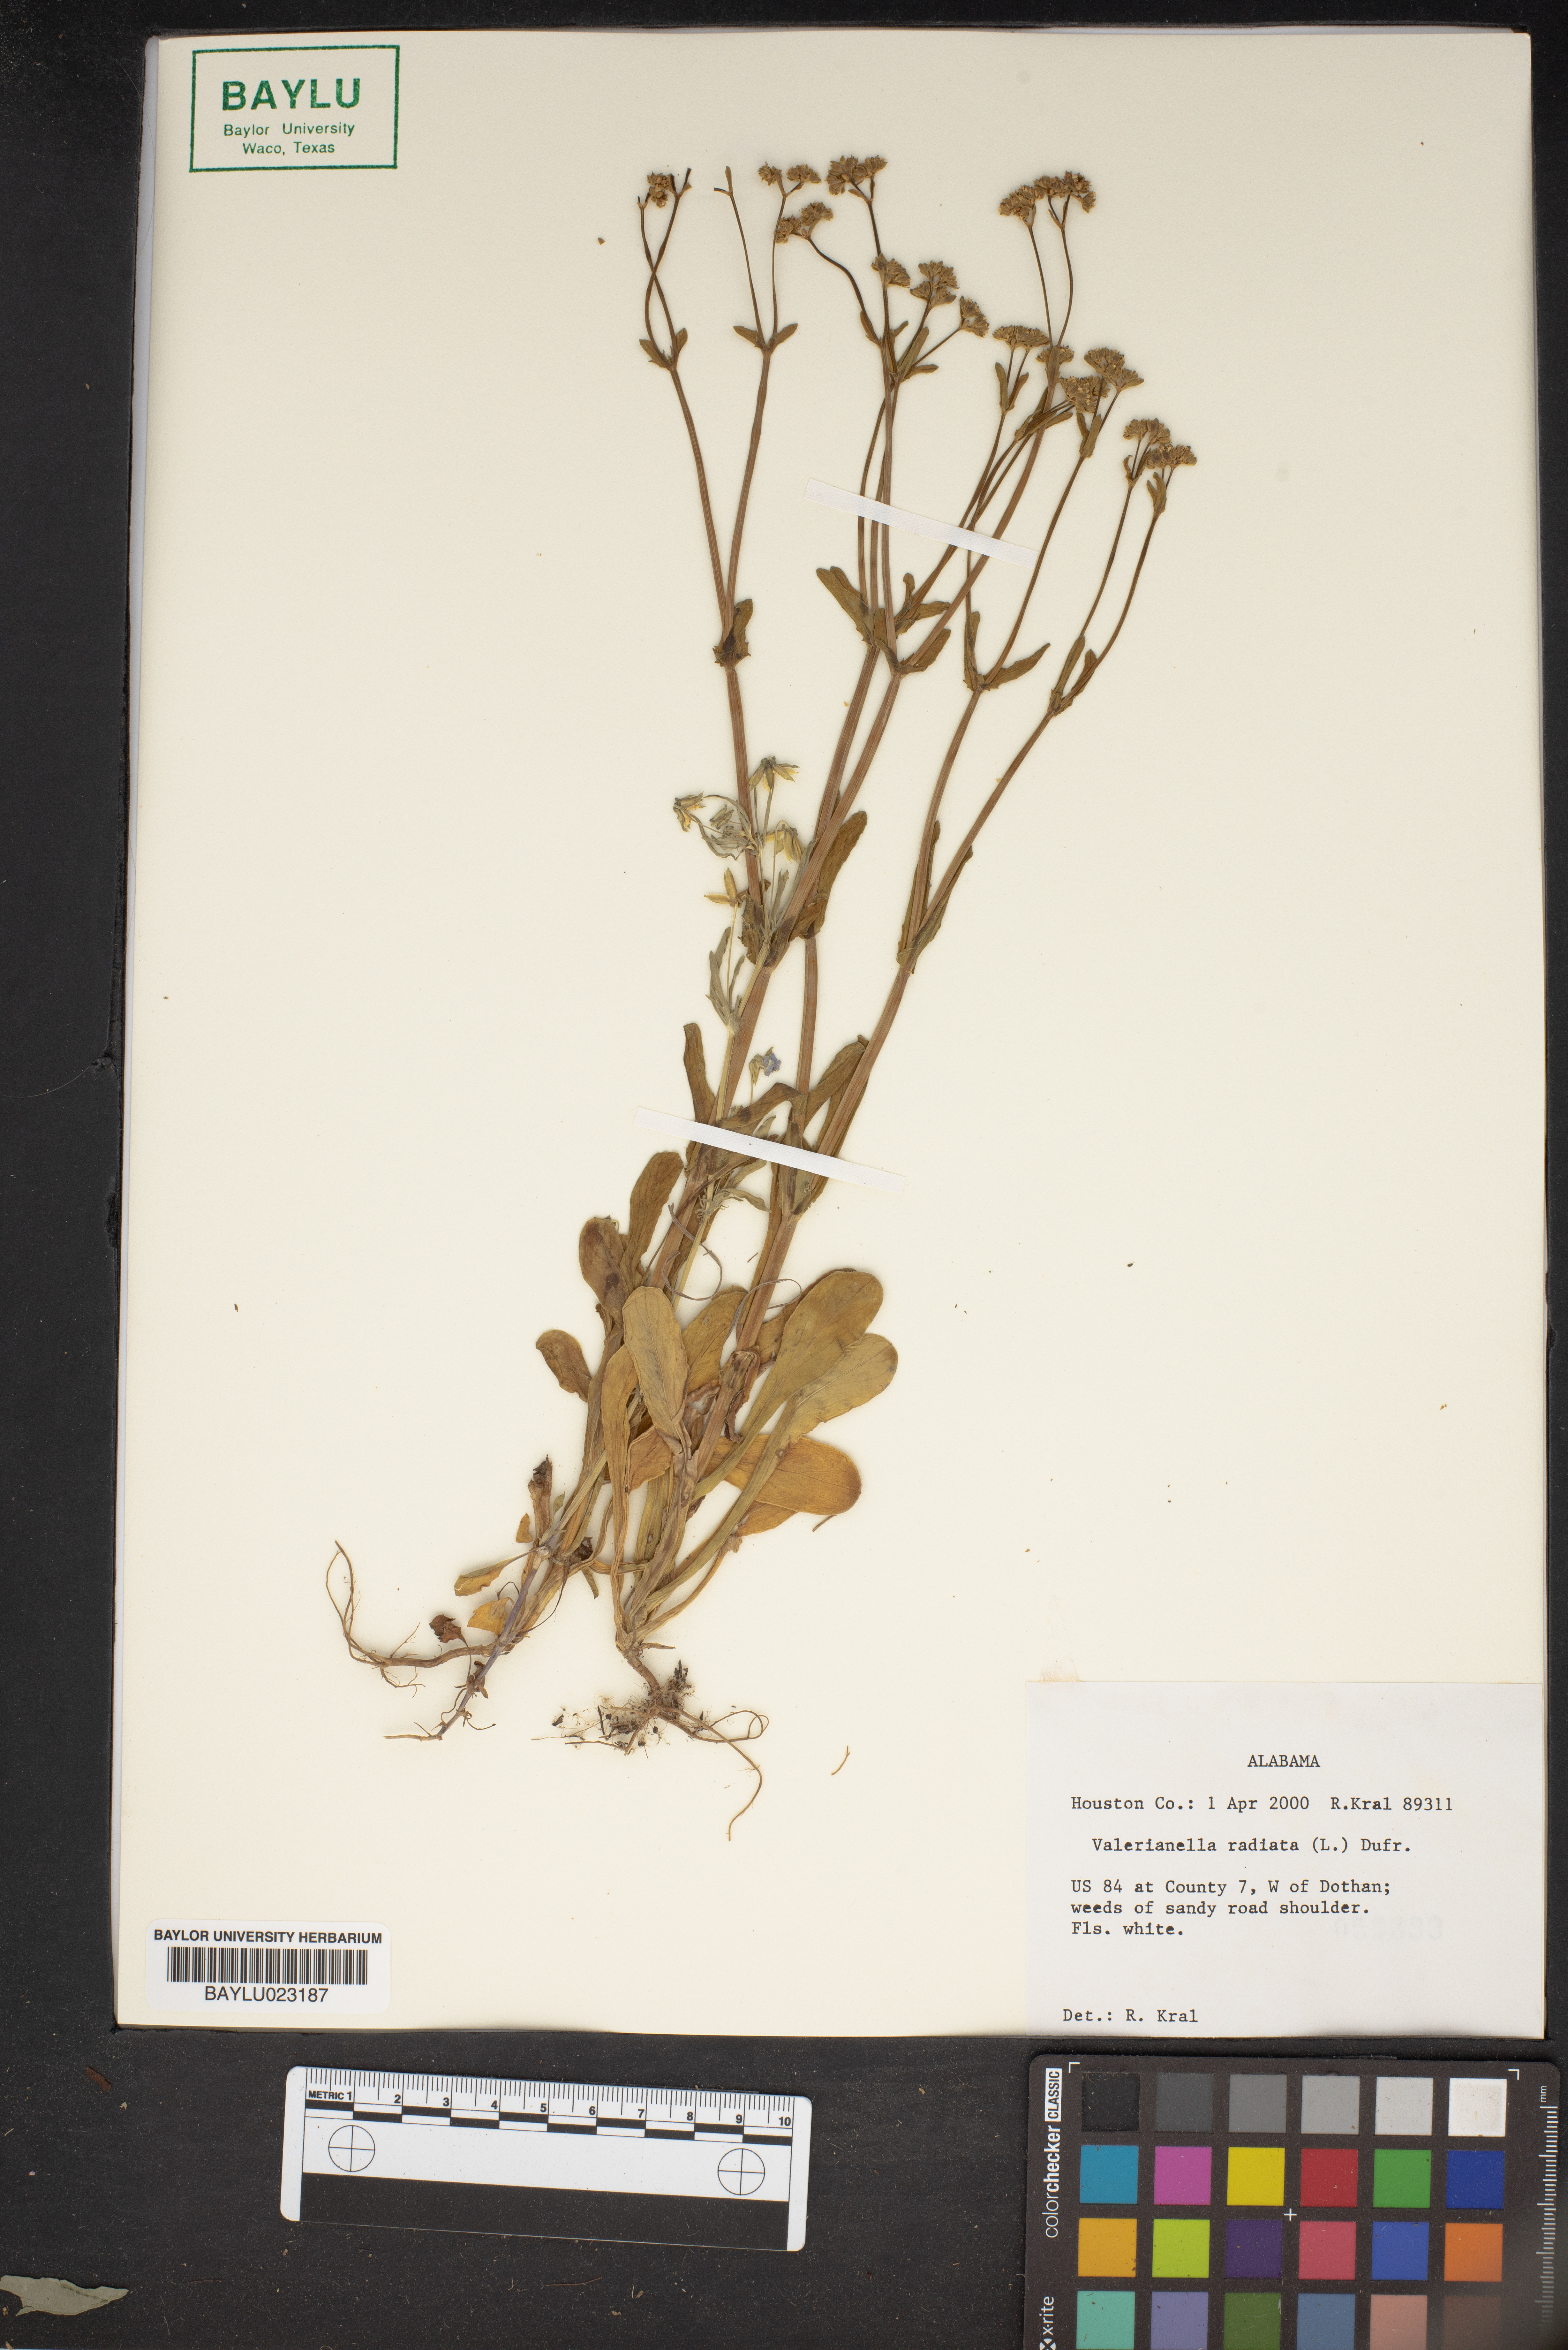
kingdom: Plantae
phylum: Tracheophyta
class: Magnoliopsida
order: Dipsacales
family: Caprifoliaceae
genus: Valerianella
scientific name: Valerianella radiata
